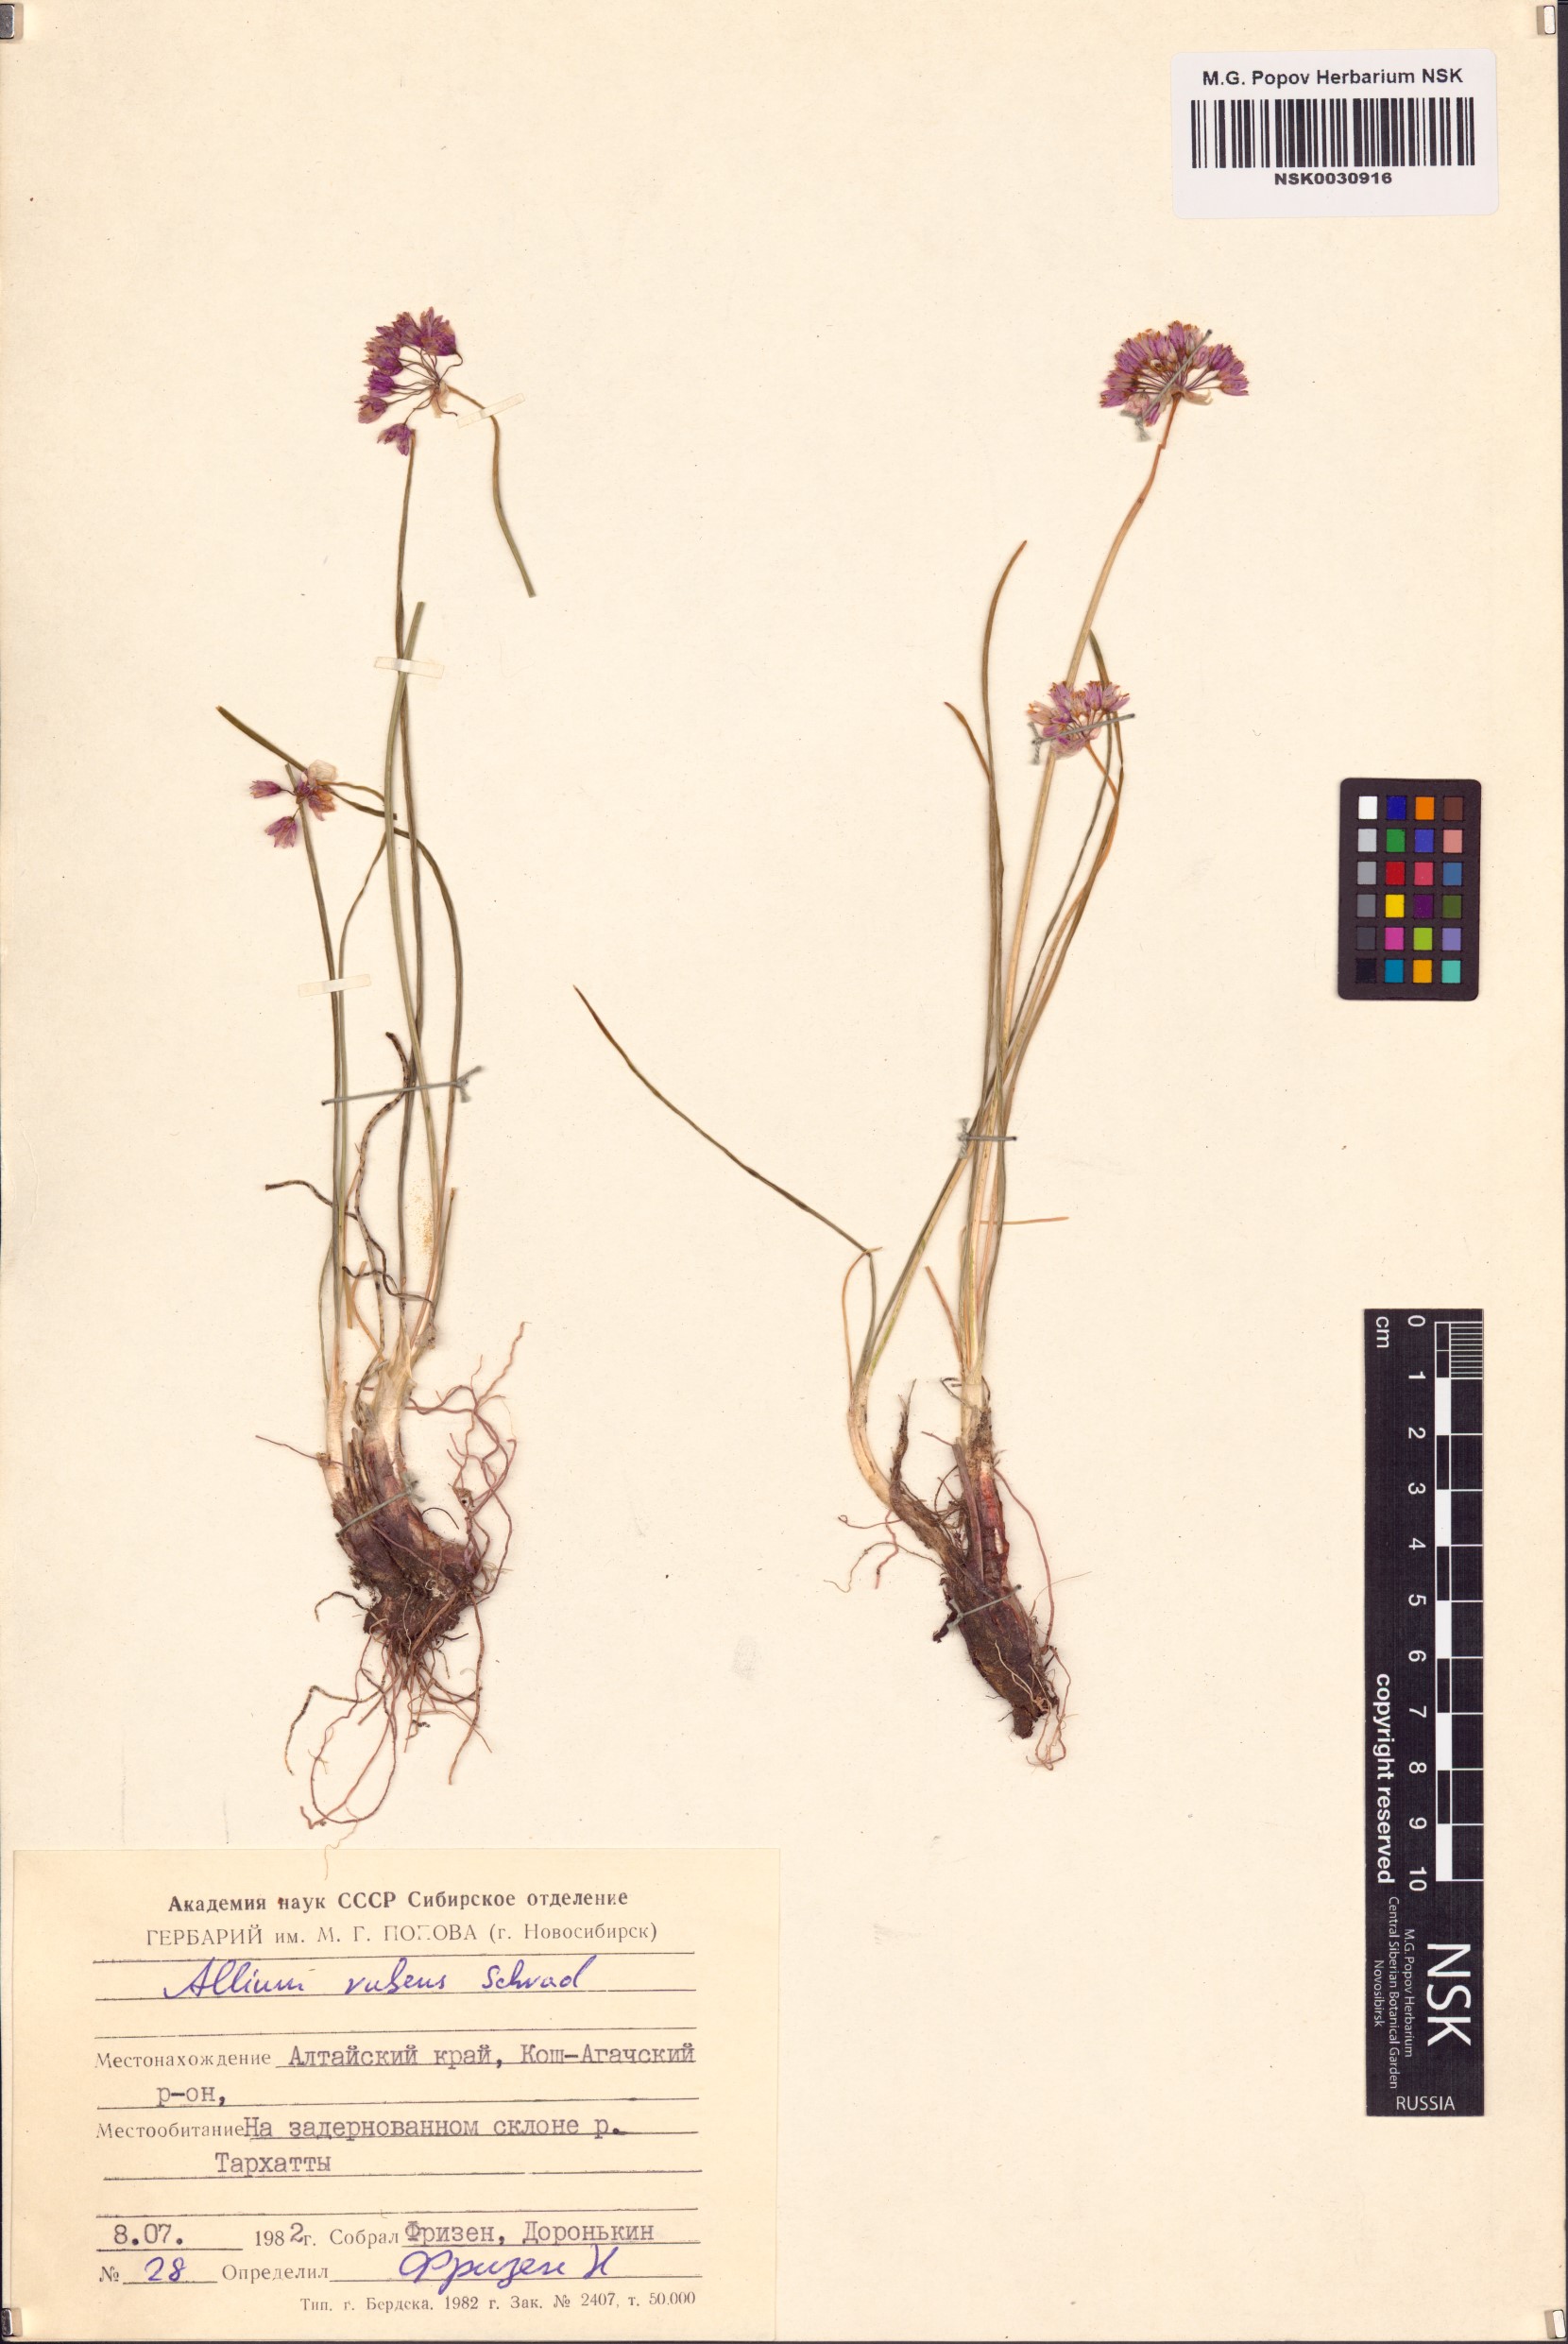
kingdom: Plantae
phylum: Tracheophyta
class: Liliopsida
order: Asparagales
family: Amaryllidaceae
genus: Allium
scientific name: Allium rubens
